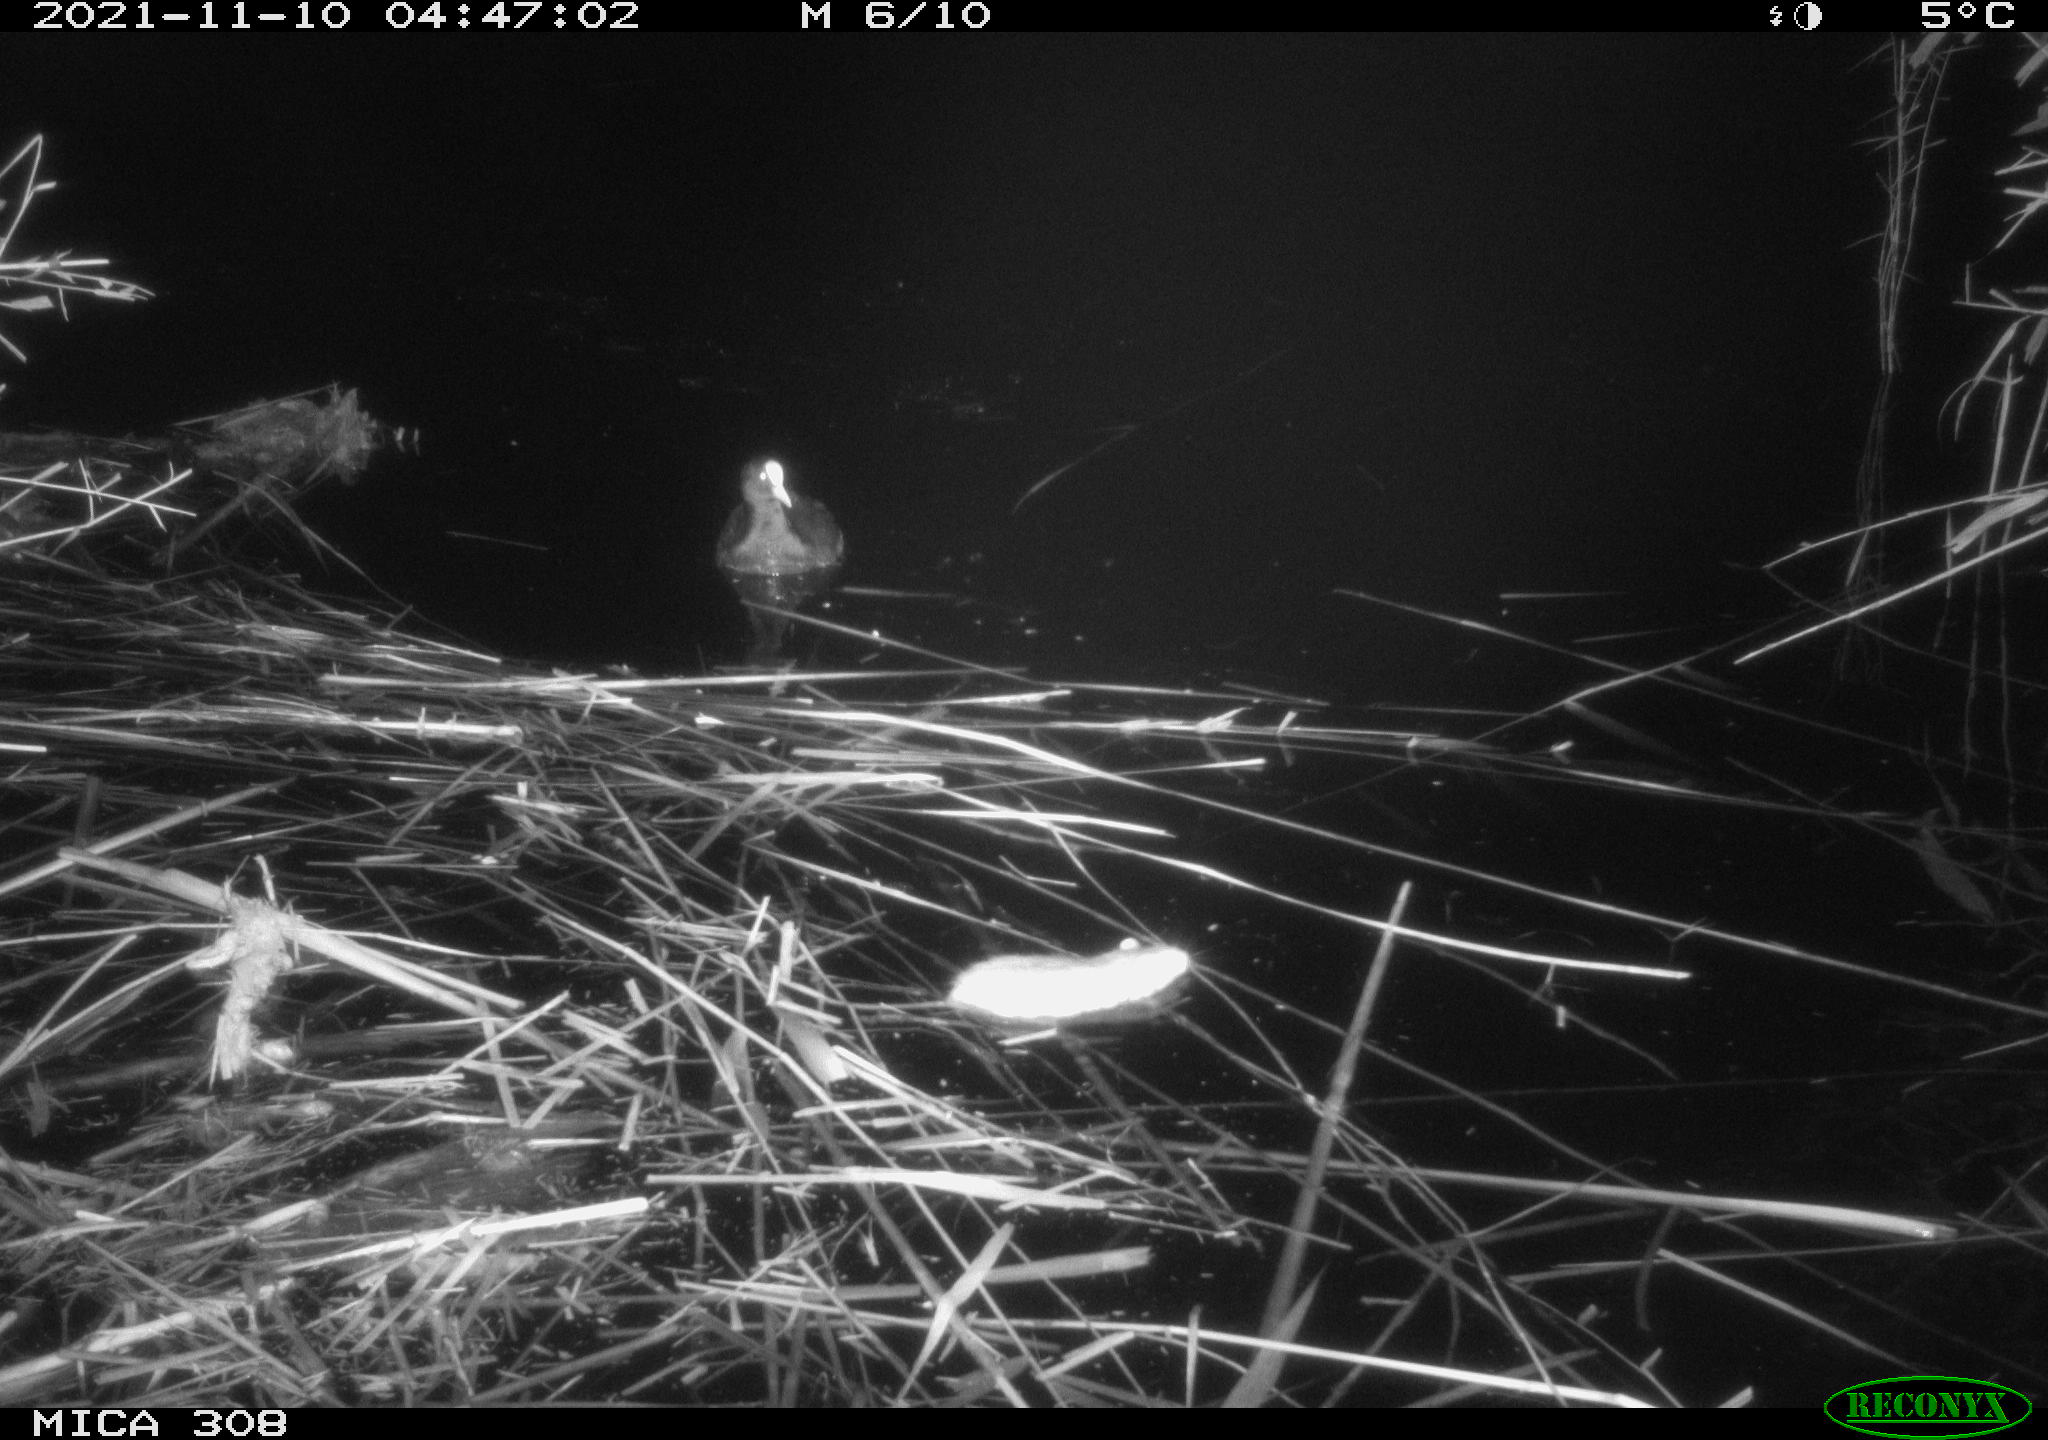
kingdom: Animalia
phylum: Chordata
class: Mammalia
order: Rodentia
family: Muridae
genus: Rattus
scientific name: Rattus norvegicus
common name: Brown rat
